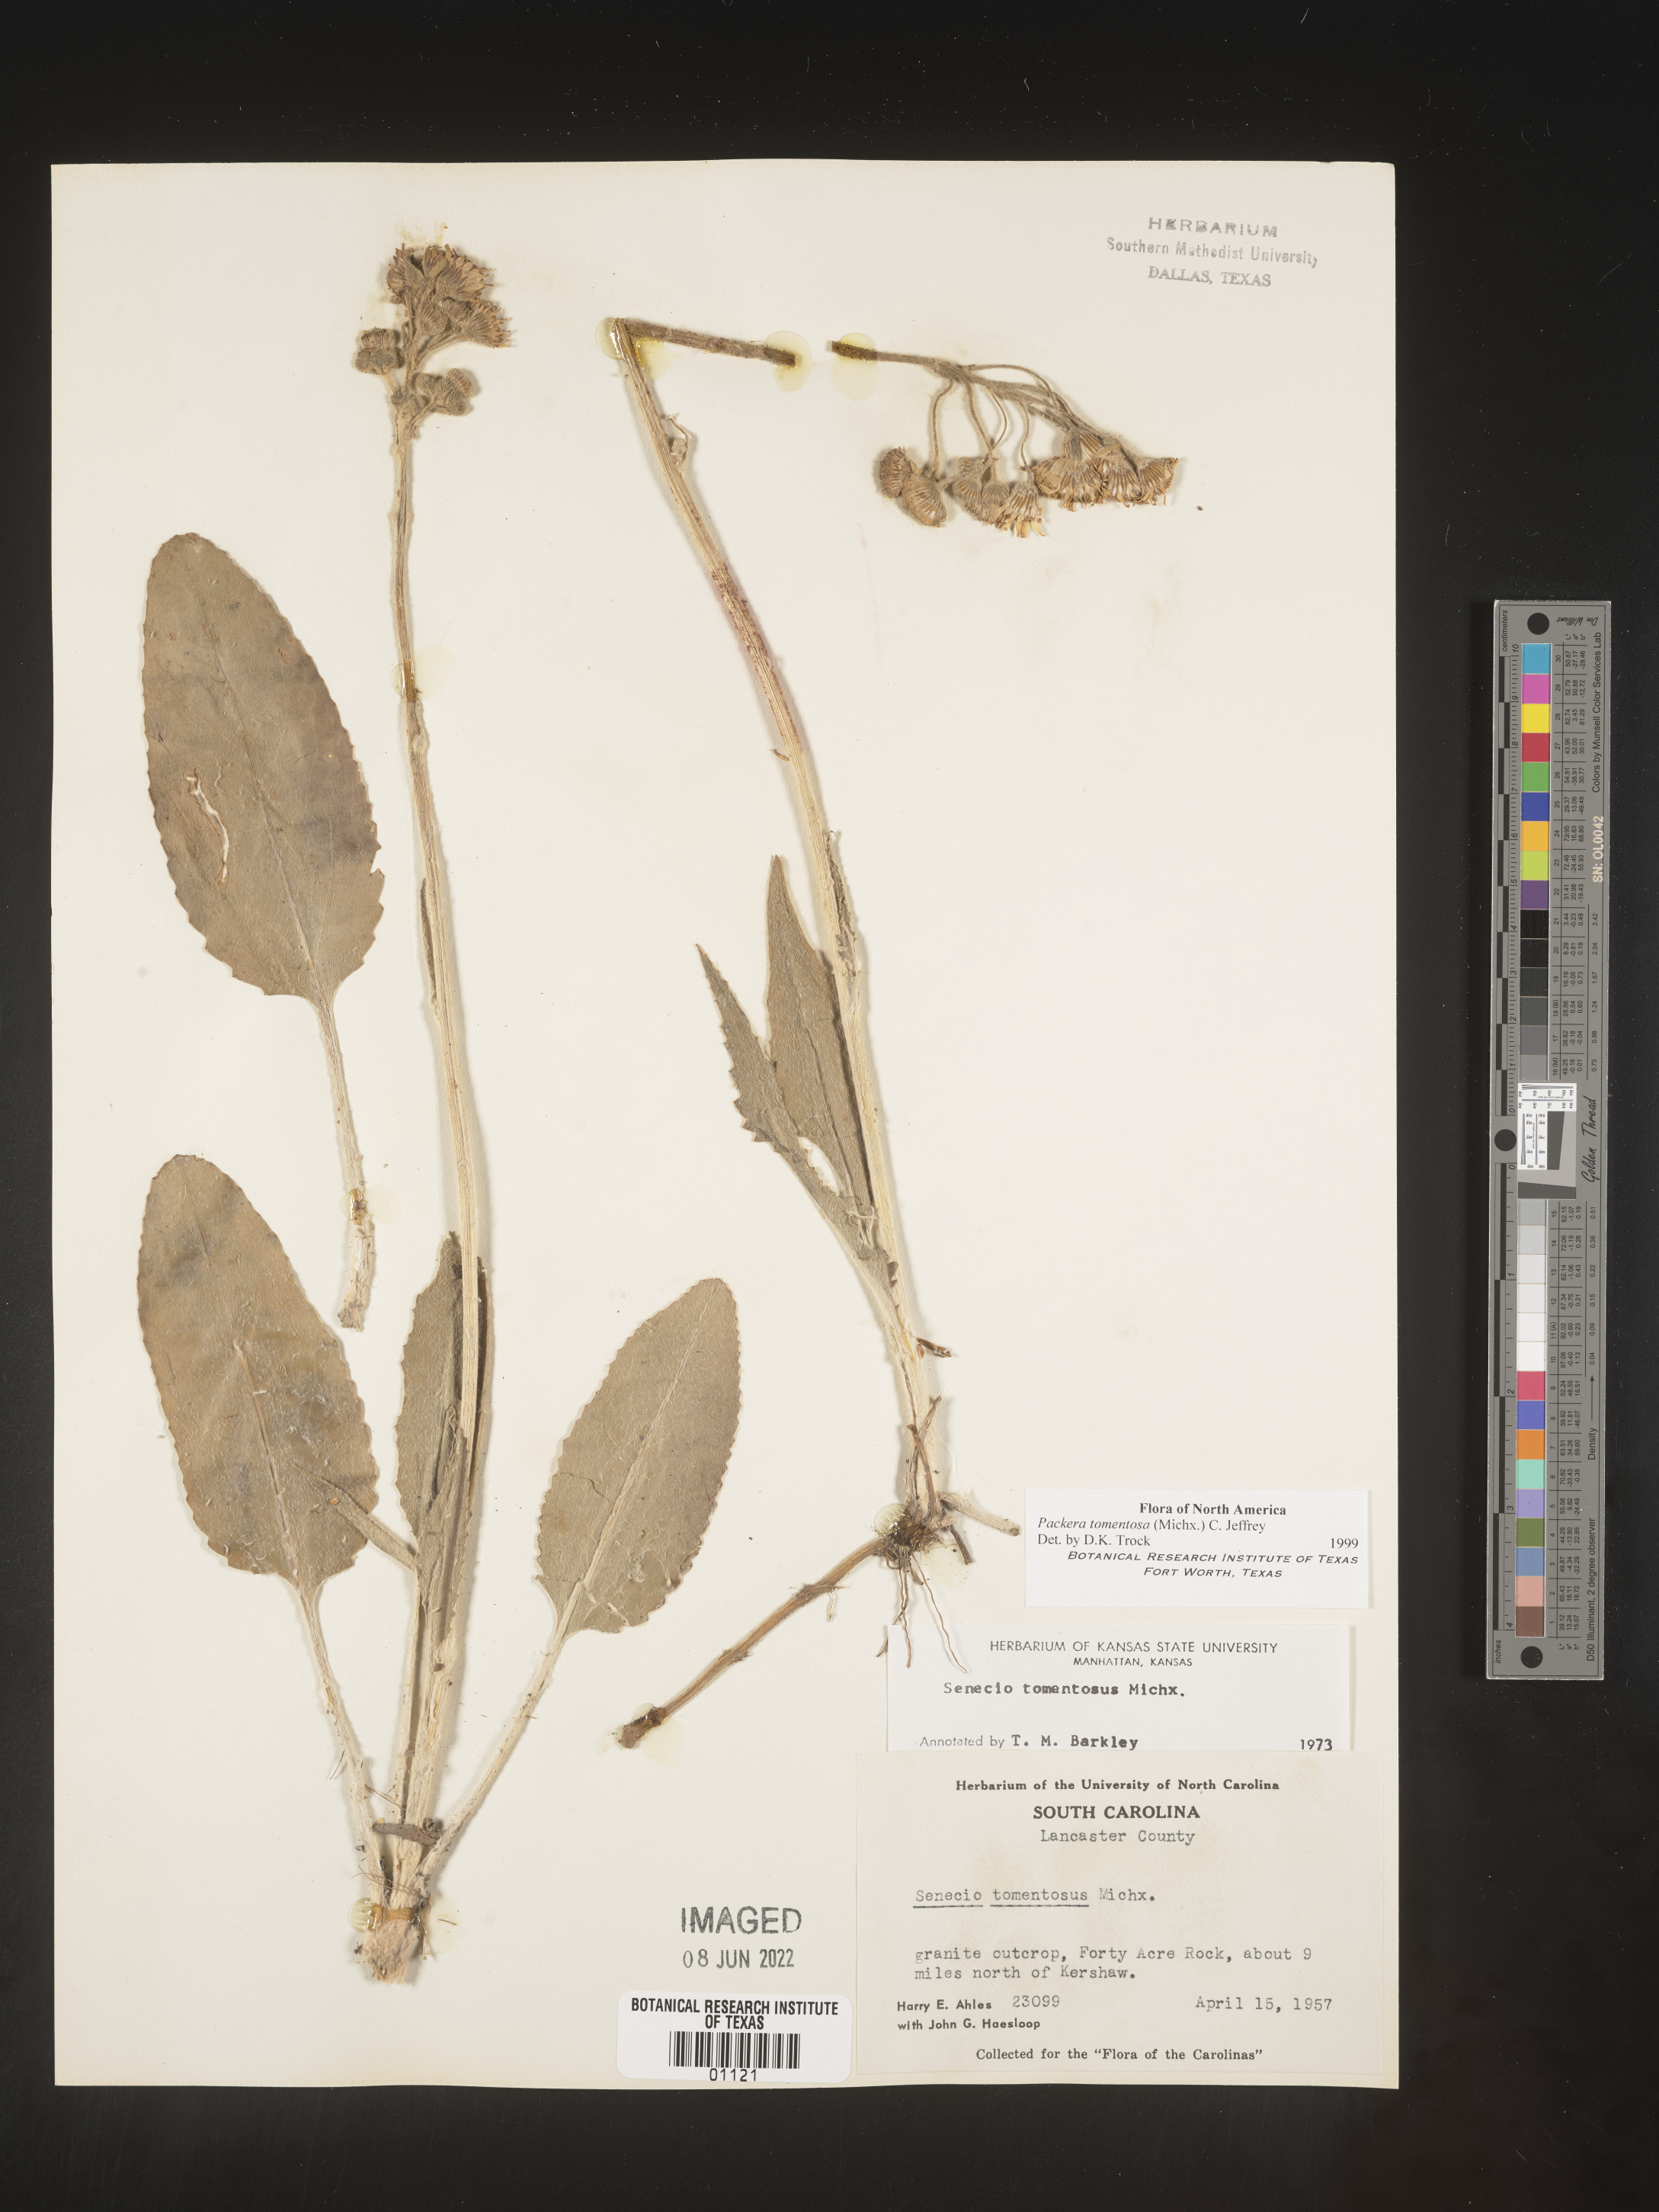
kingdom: Plantae
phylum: Tracheophyta
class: Magnoliopsida
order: Asterales
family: Asteraceae
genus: Packera
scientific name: Packera dubia
